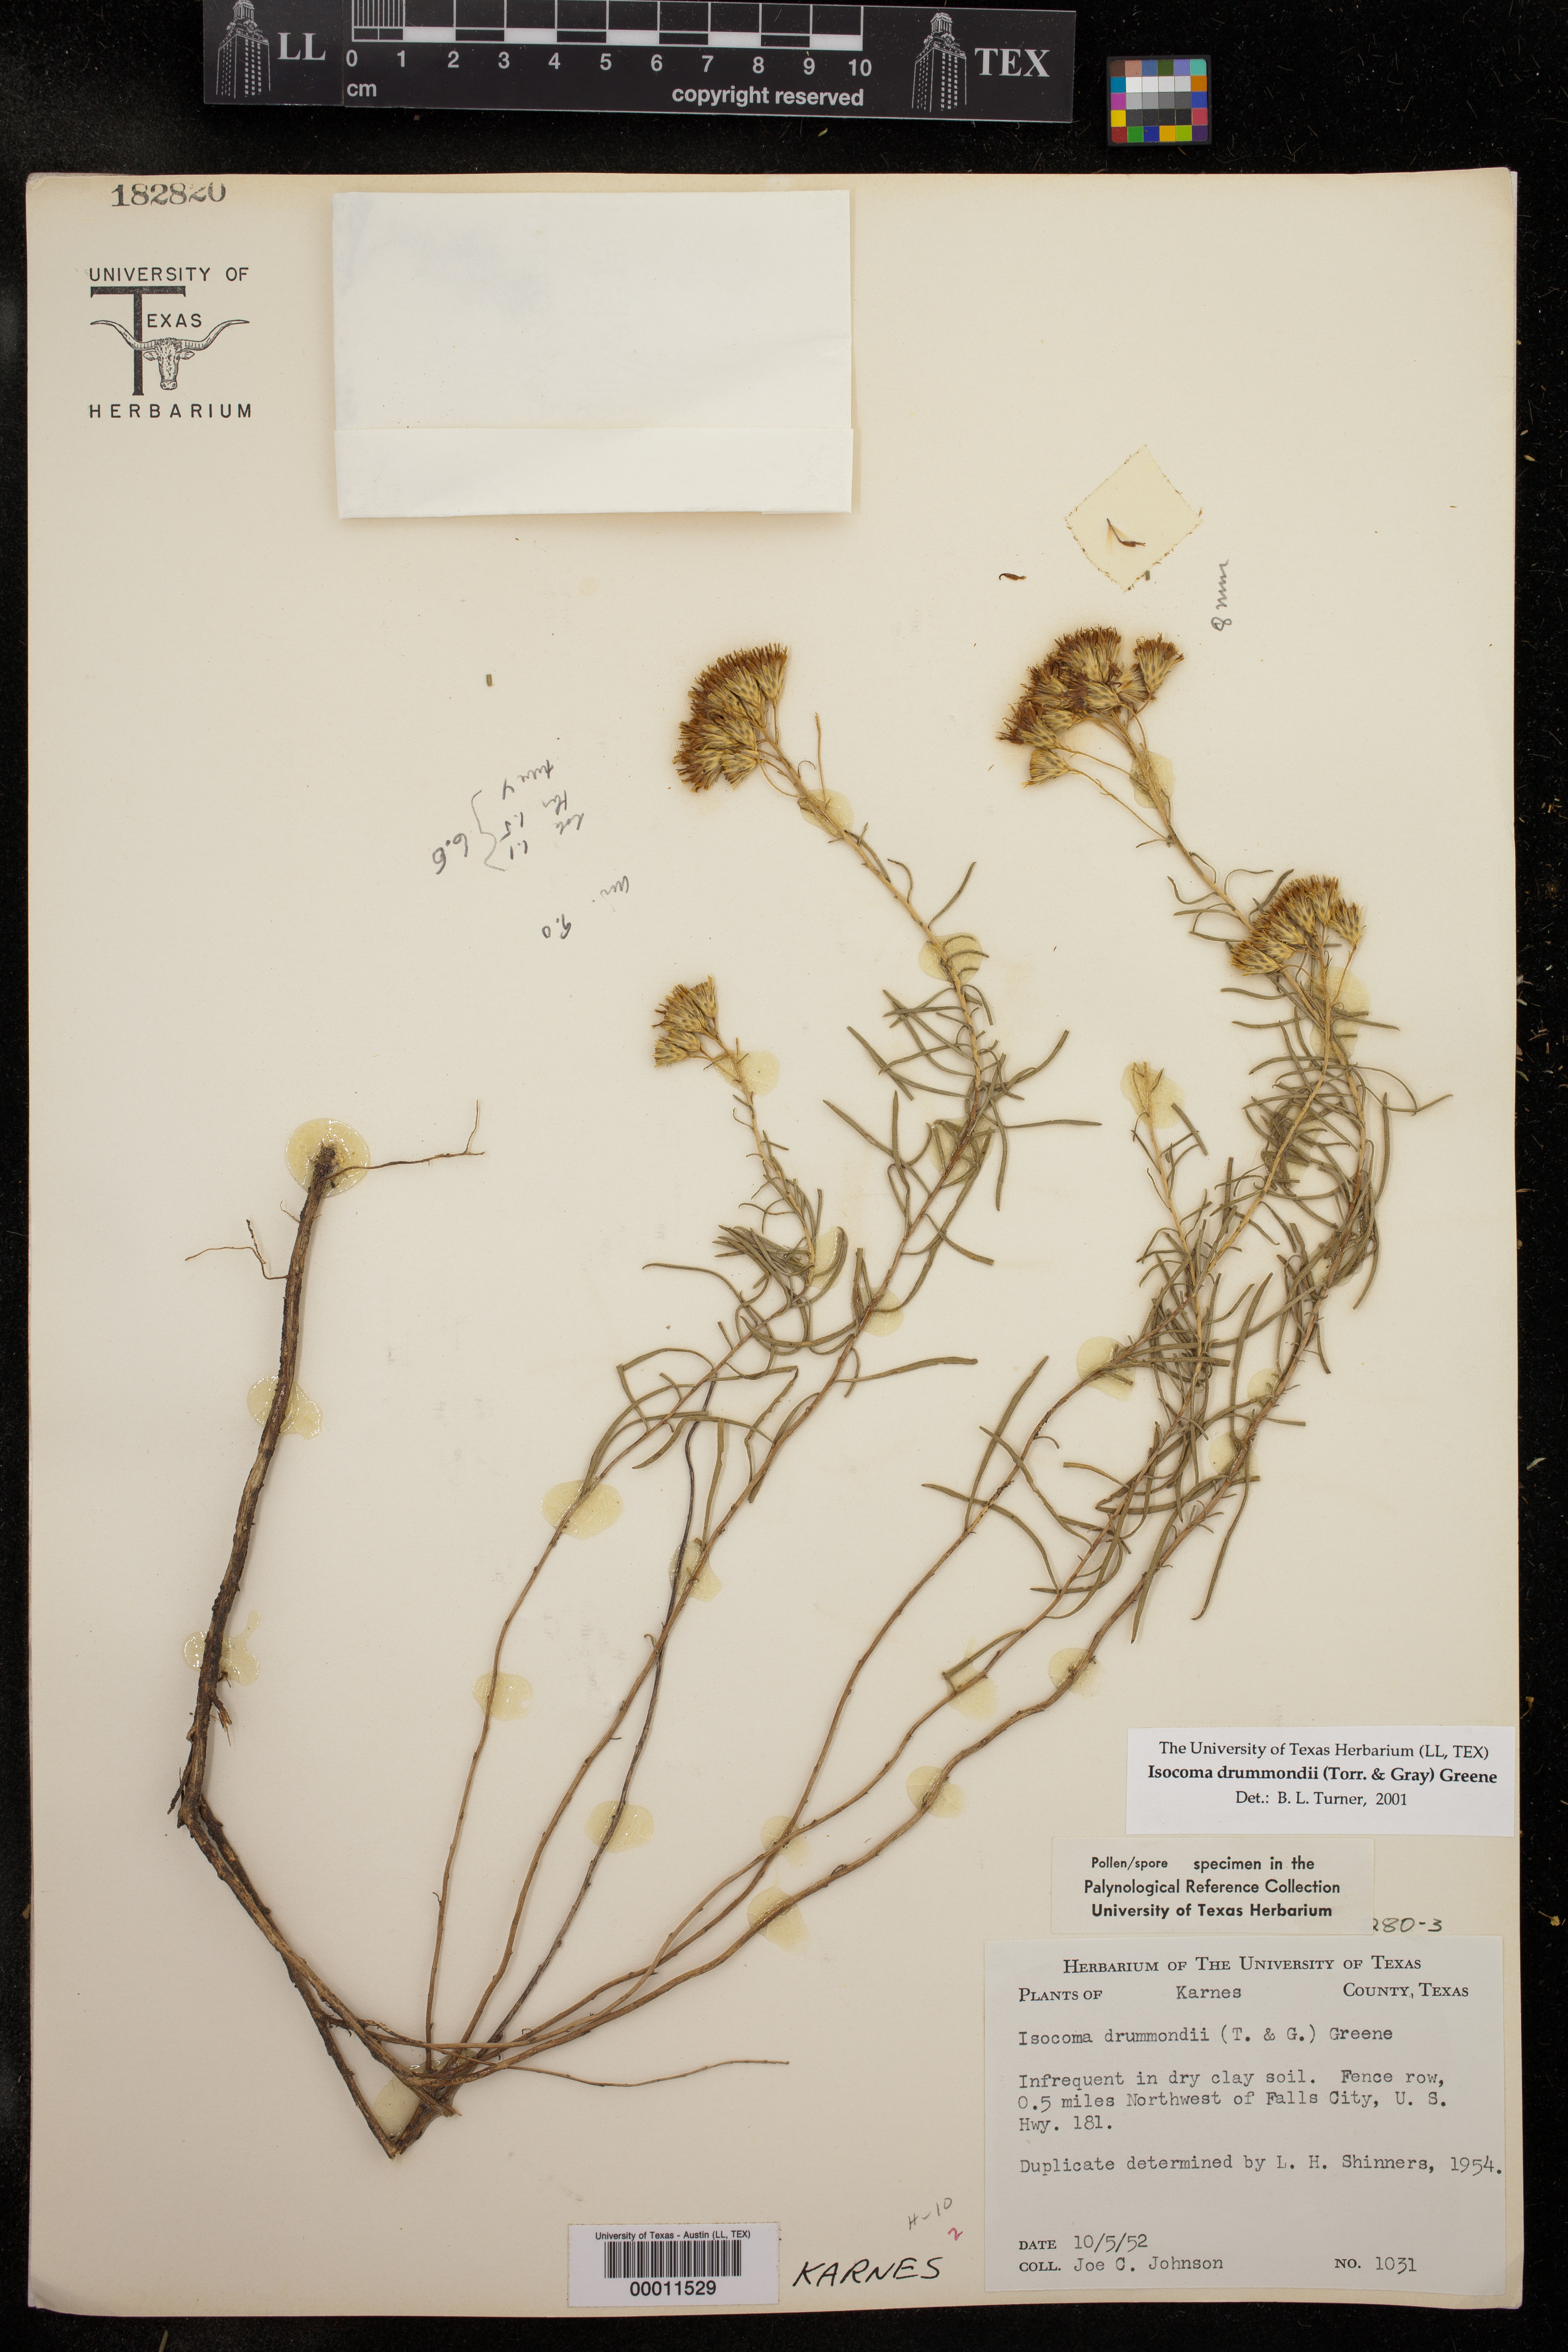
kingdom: Plantae
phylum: Tracheophyta
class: Magnoliopsida
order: Asterales
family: Asteraceae
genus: Isocoma
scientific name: Isocoma drummondii
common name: Drummond's jimmyweed
